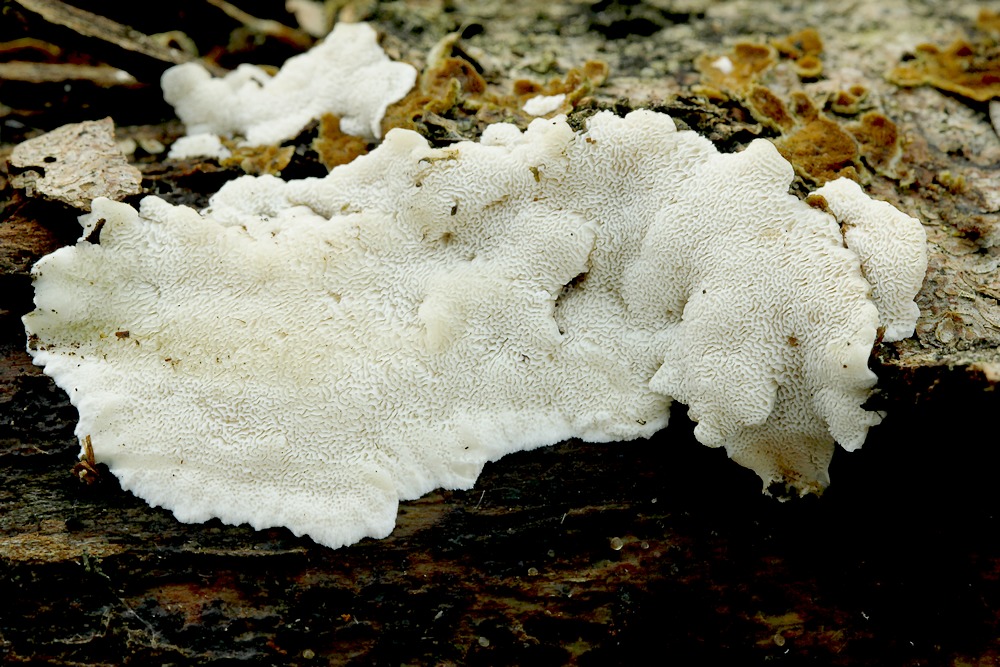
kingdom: Fungi
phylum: Basidiomycota
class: Agaricomycetes
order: Polyporales
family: Steccherinaceae
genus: Antrodiella
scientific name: Antrodiella parasitica
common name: violpore-elastiskporesvamp
